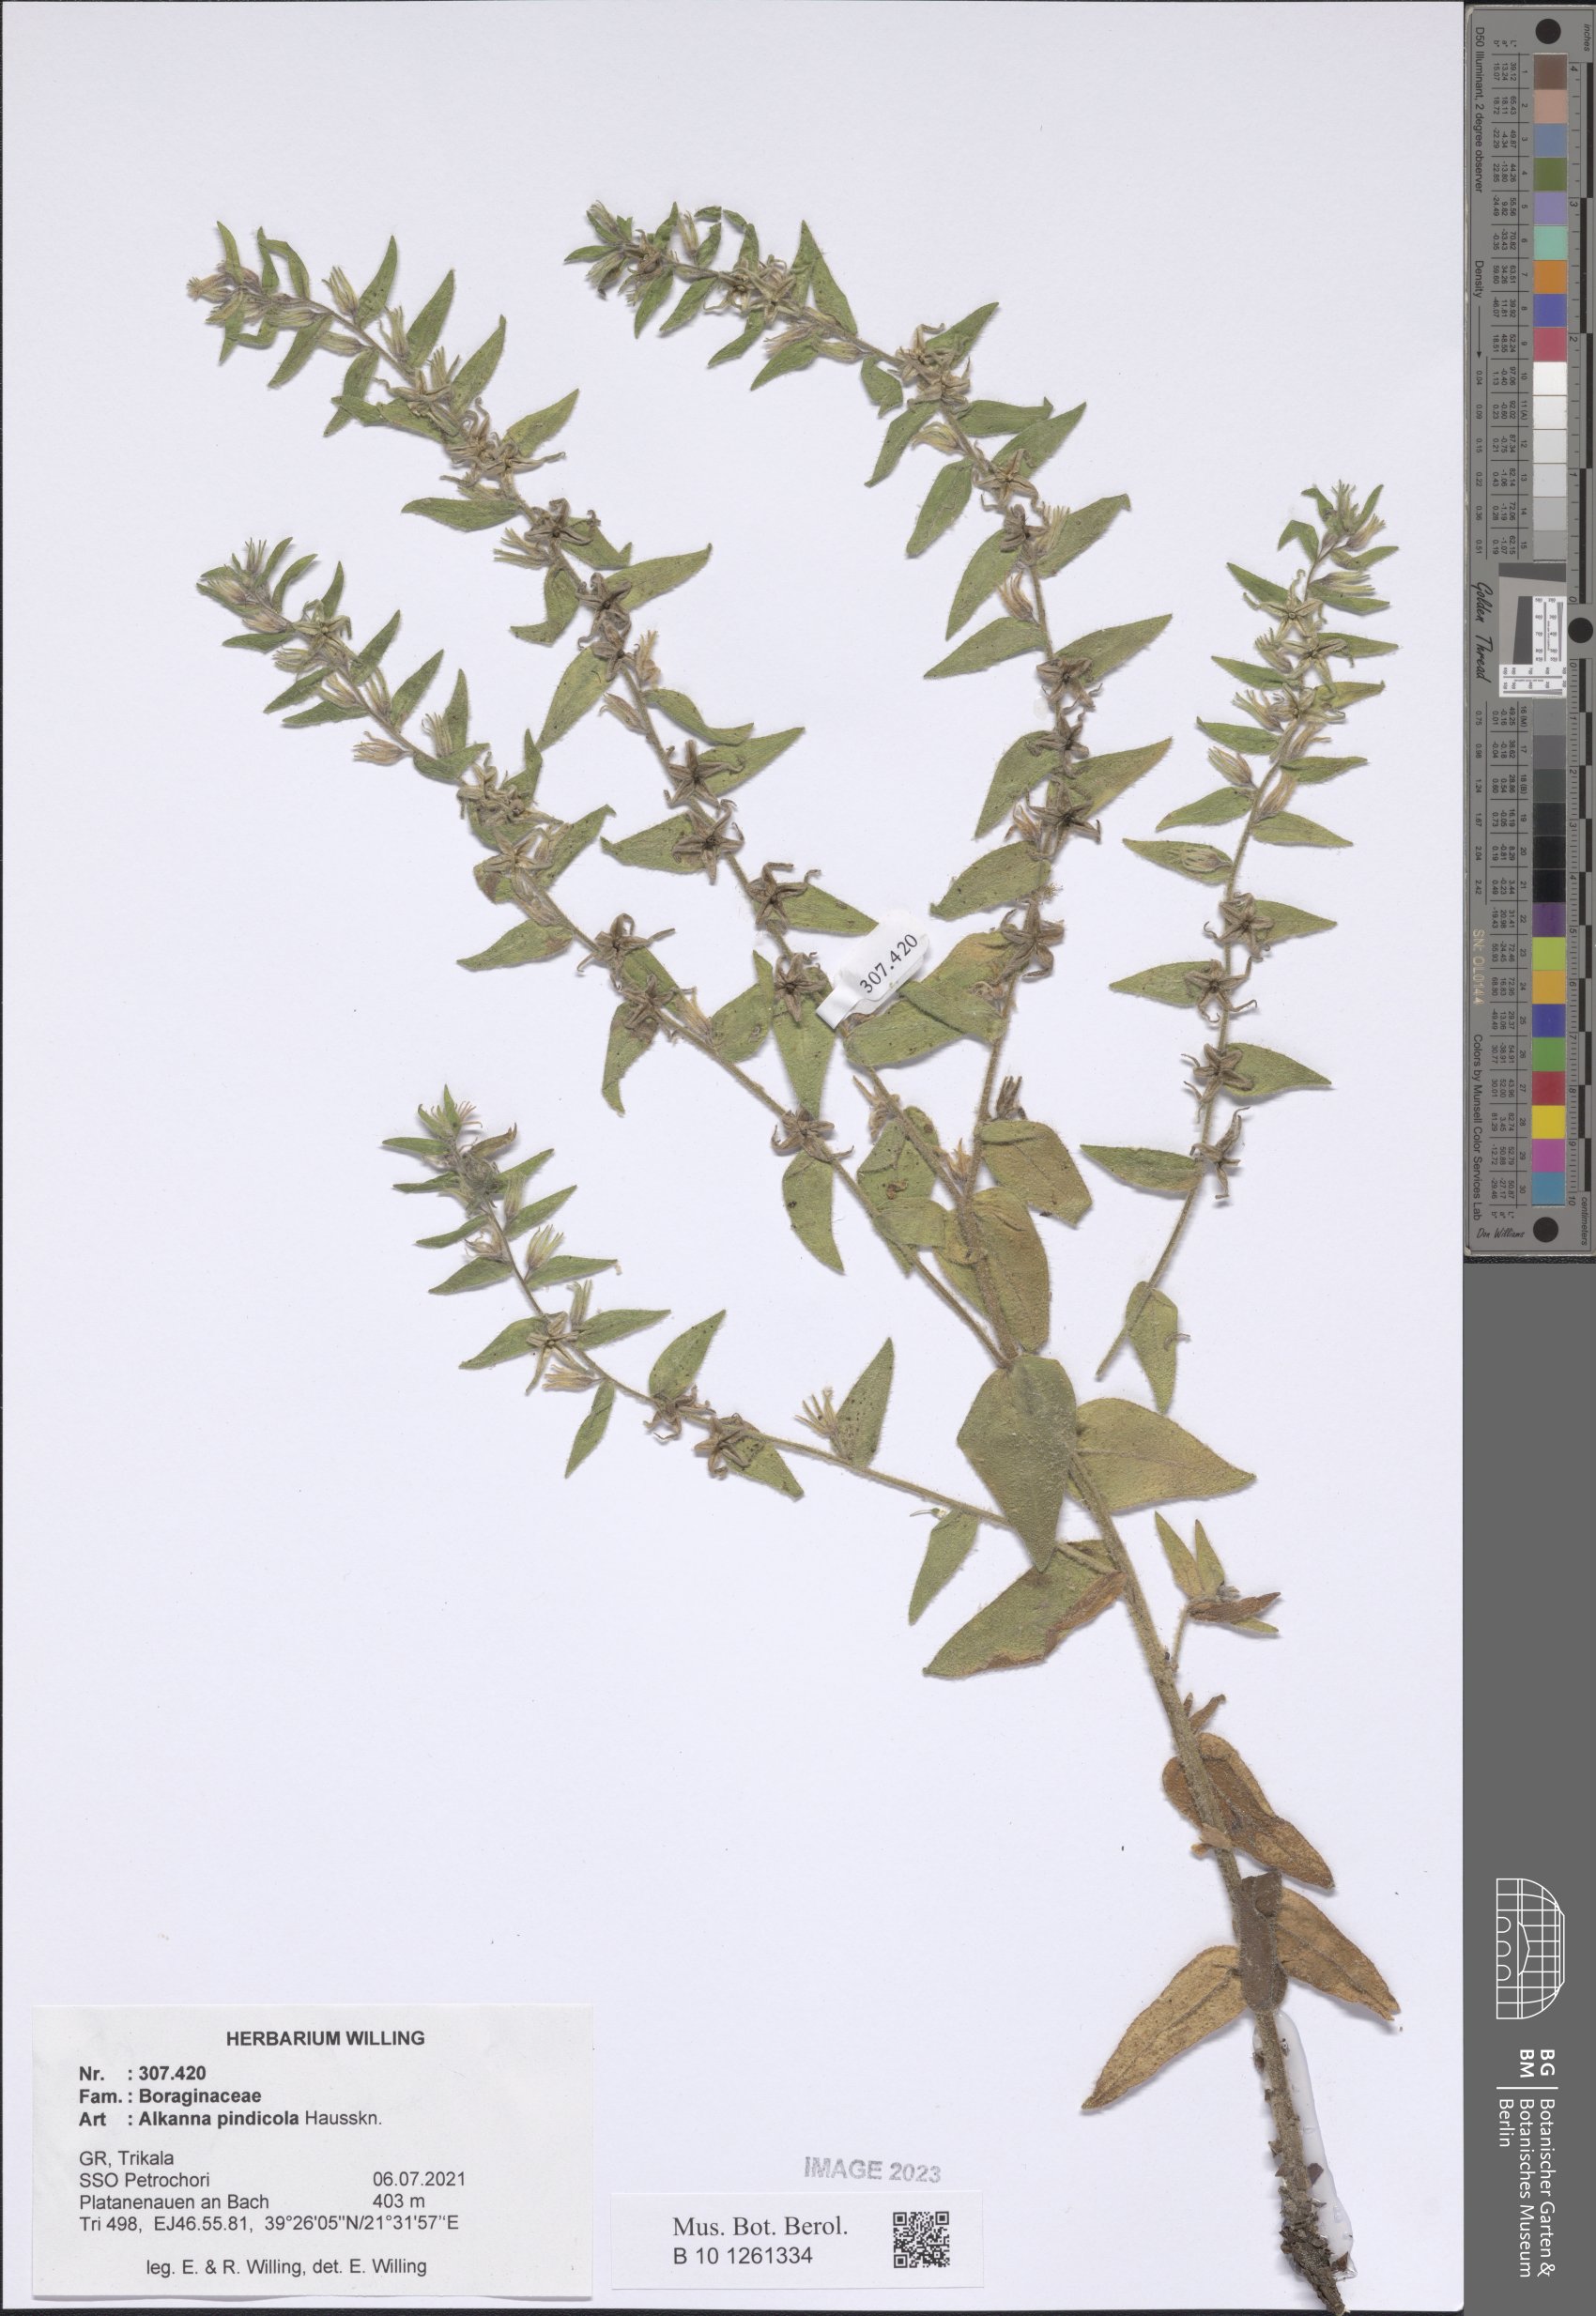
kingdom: Plantae
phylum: Tracheophyta
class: Magnoliopsida
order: Boraginales
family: Boraginaceae
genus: Alkanna
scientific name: Alkanna pindicola
